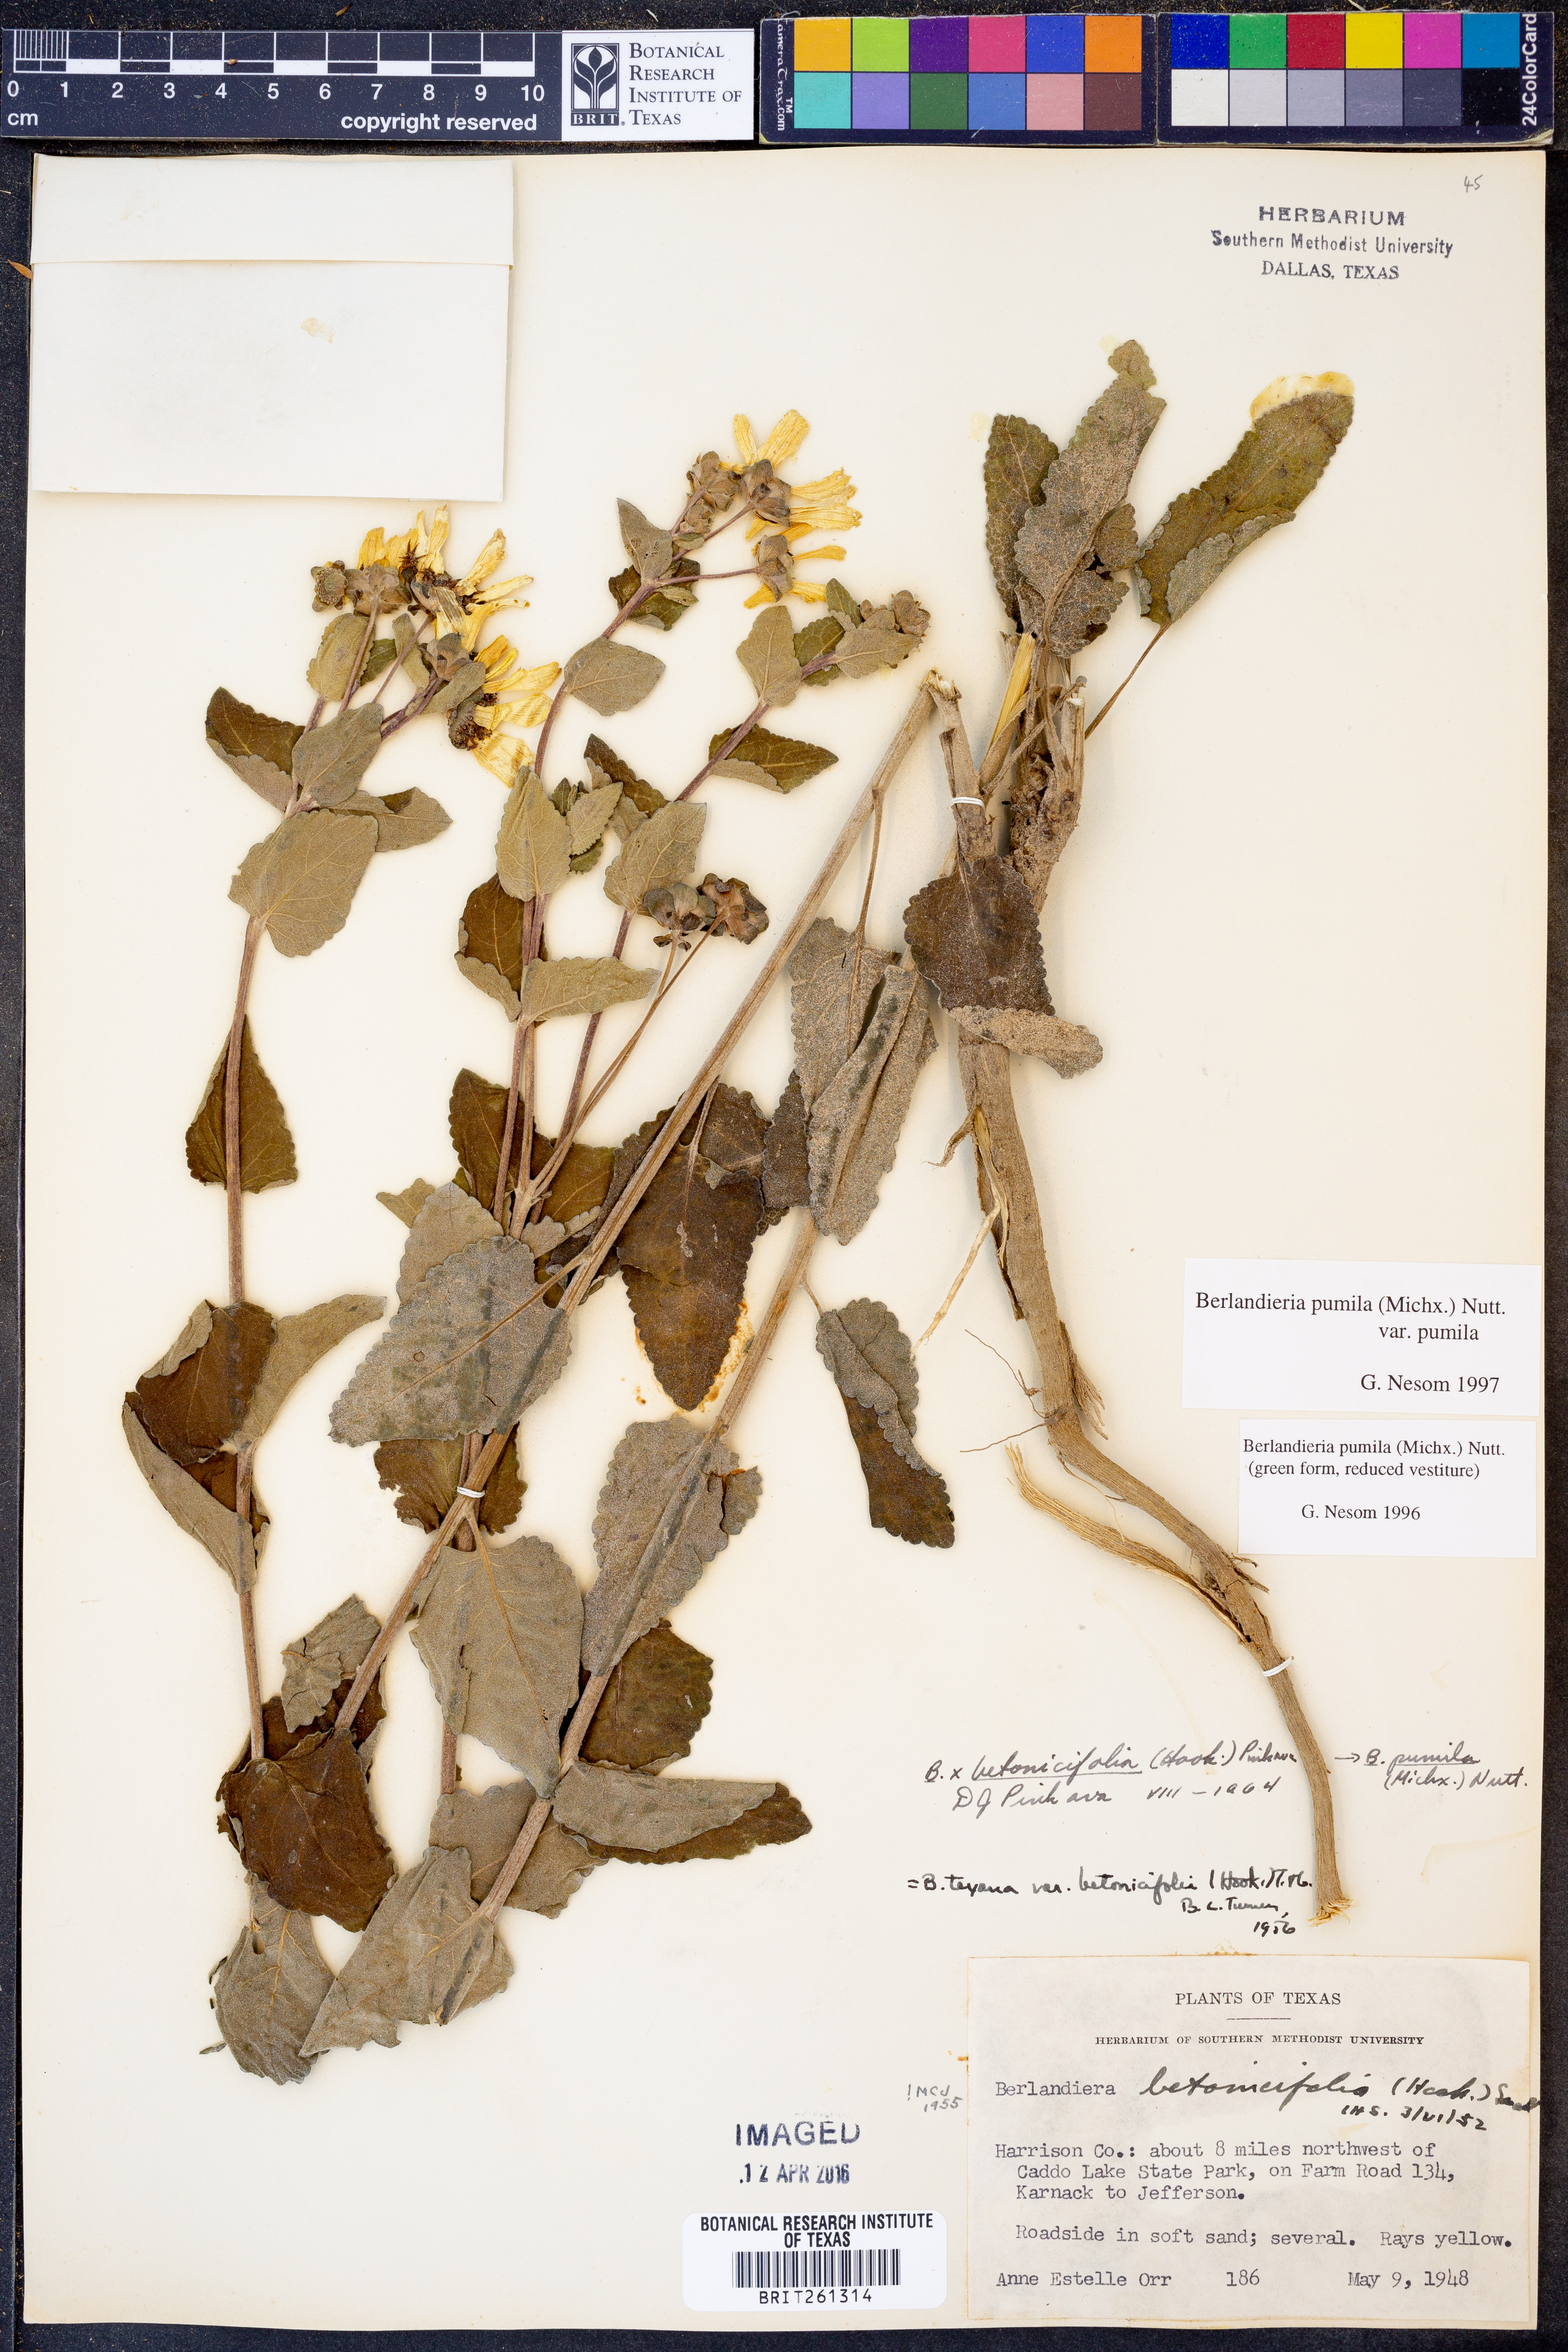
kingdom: Plantae
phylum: Tracheophyta
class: Magnoliopsida
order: Asterales
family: Asteraceae
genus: Berlandiera
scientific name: Berlandiera pumila
